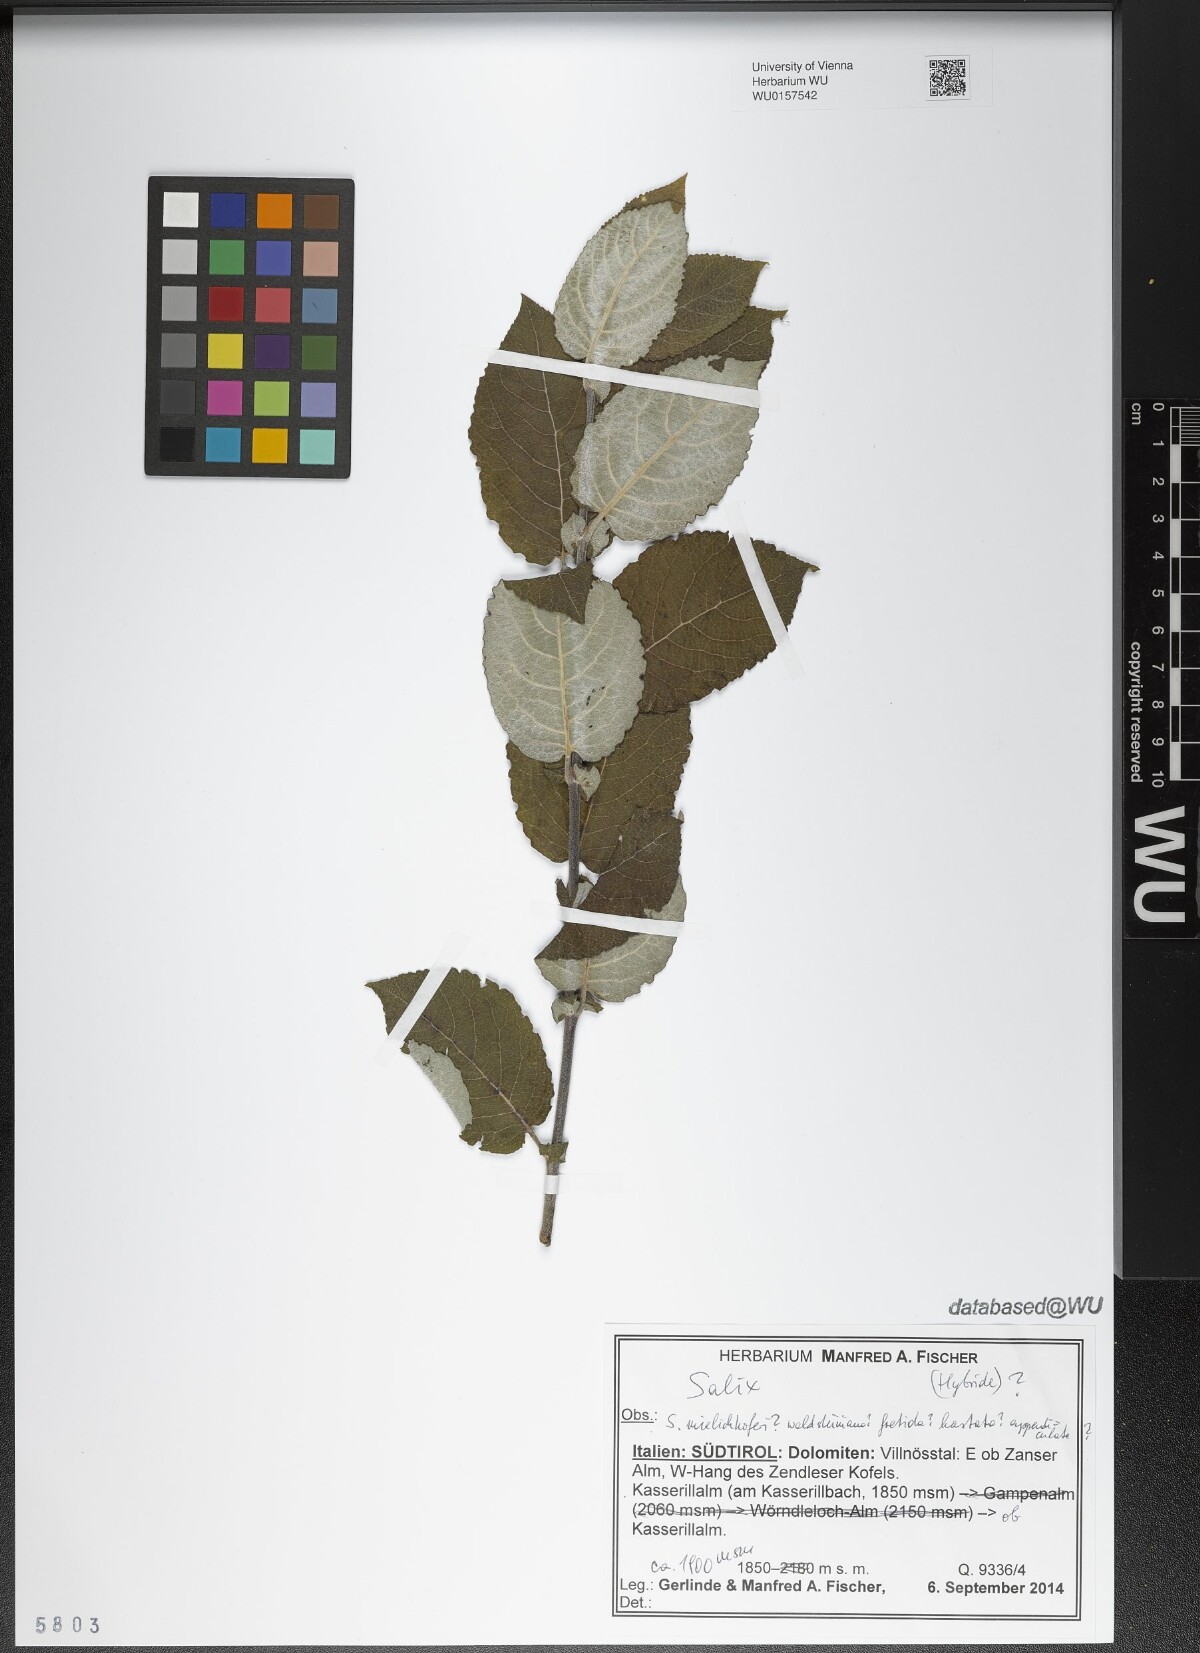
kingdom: Plantae
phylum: Tracheophyta
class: Magnoliopsida
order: Malpighiales
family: Salicaceae
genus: Salix
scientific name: Salix
